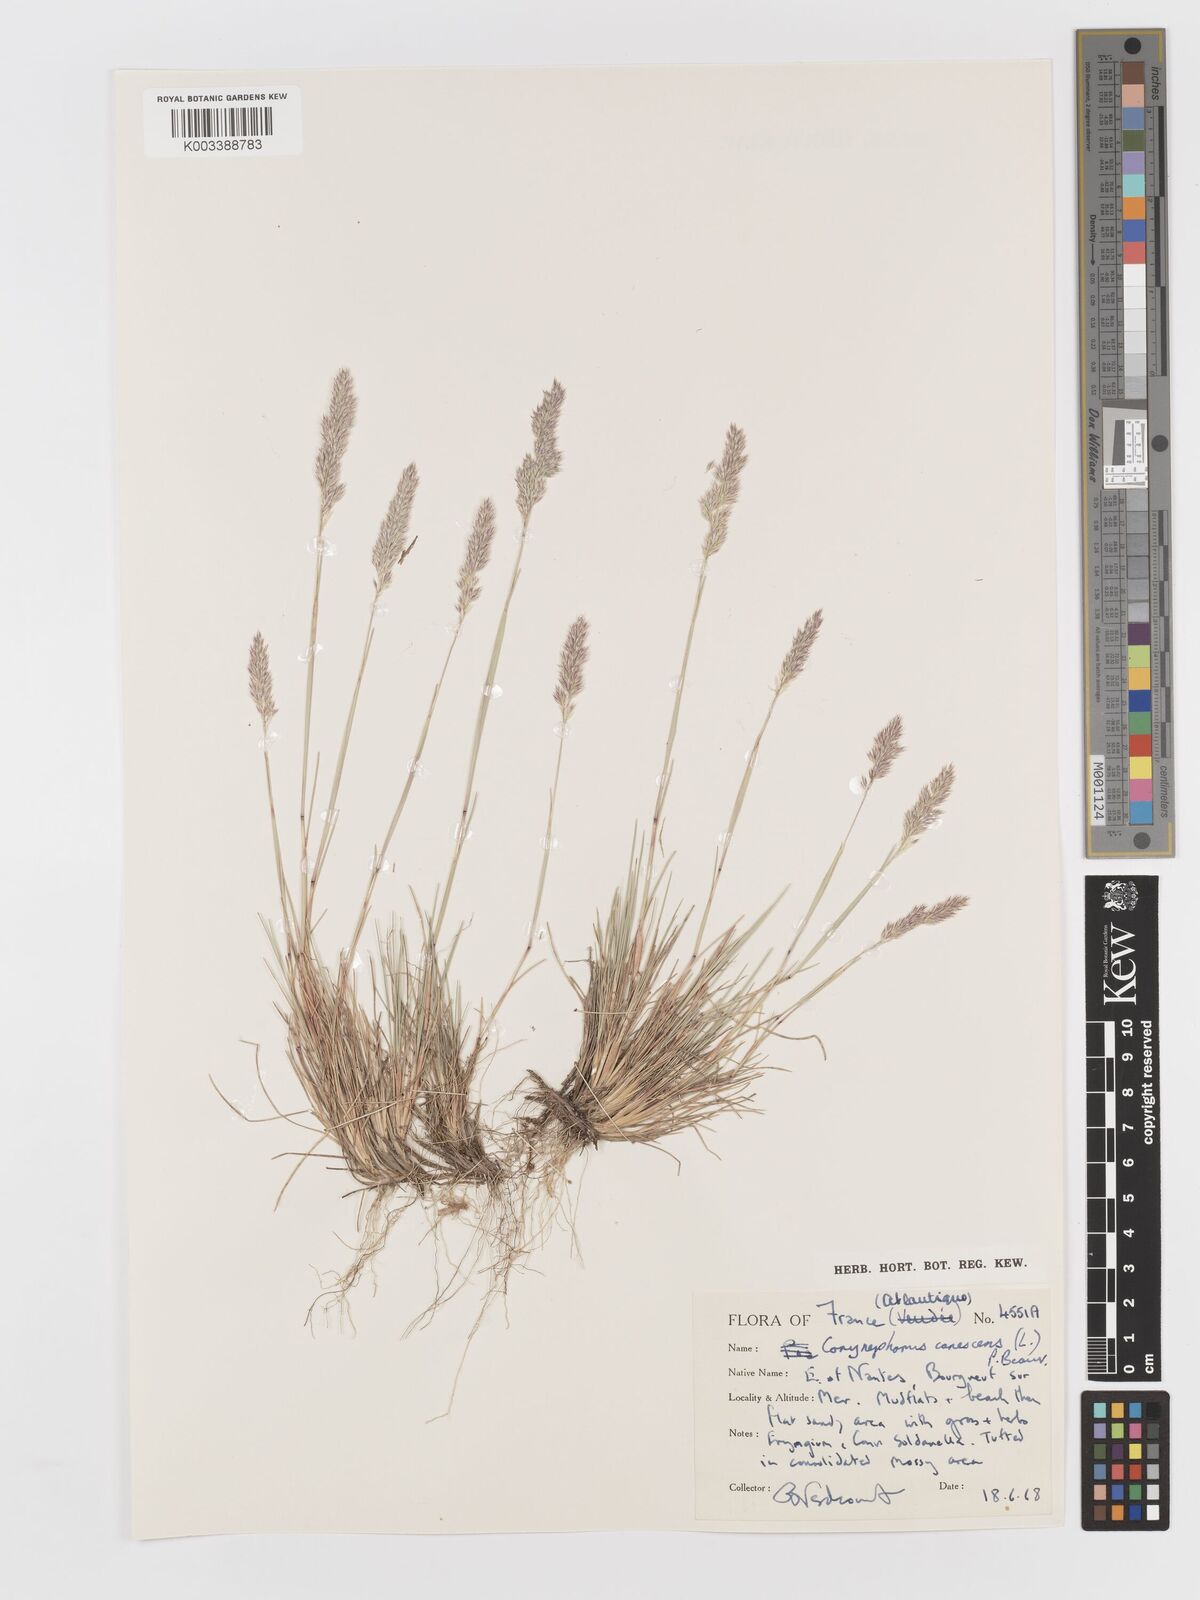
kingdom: Plantae
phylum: Tracheophyta
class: Liliopsida
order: Poales
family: Poaceae
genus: Corynephorus
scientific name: Corynephorus canescens
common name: Grey hair-grass
